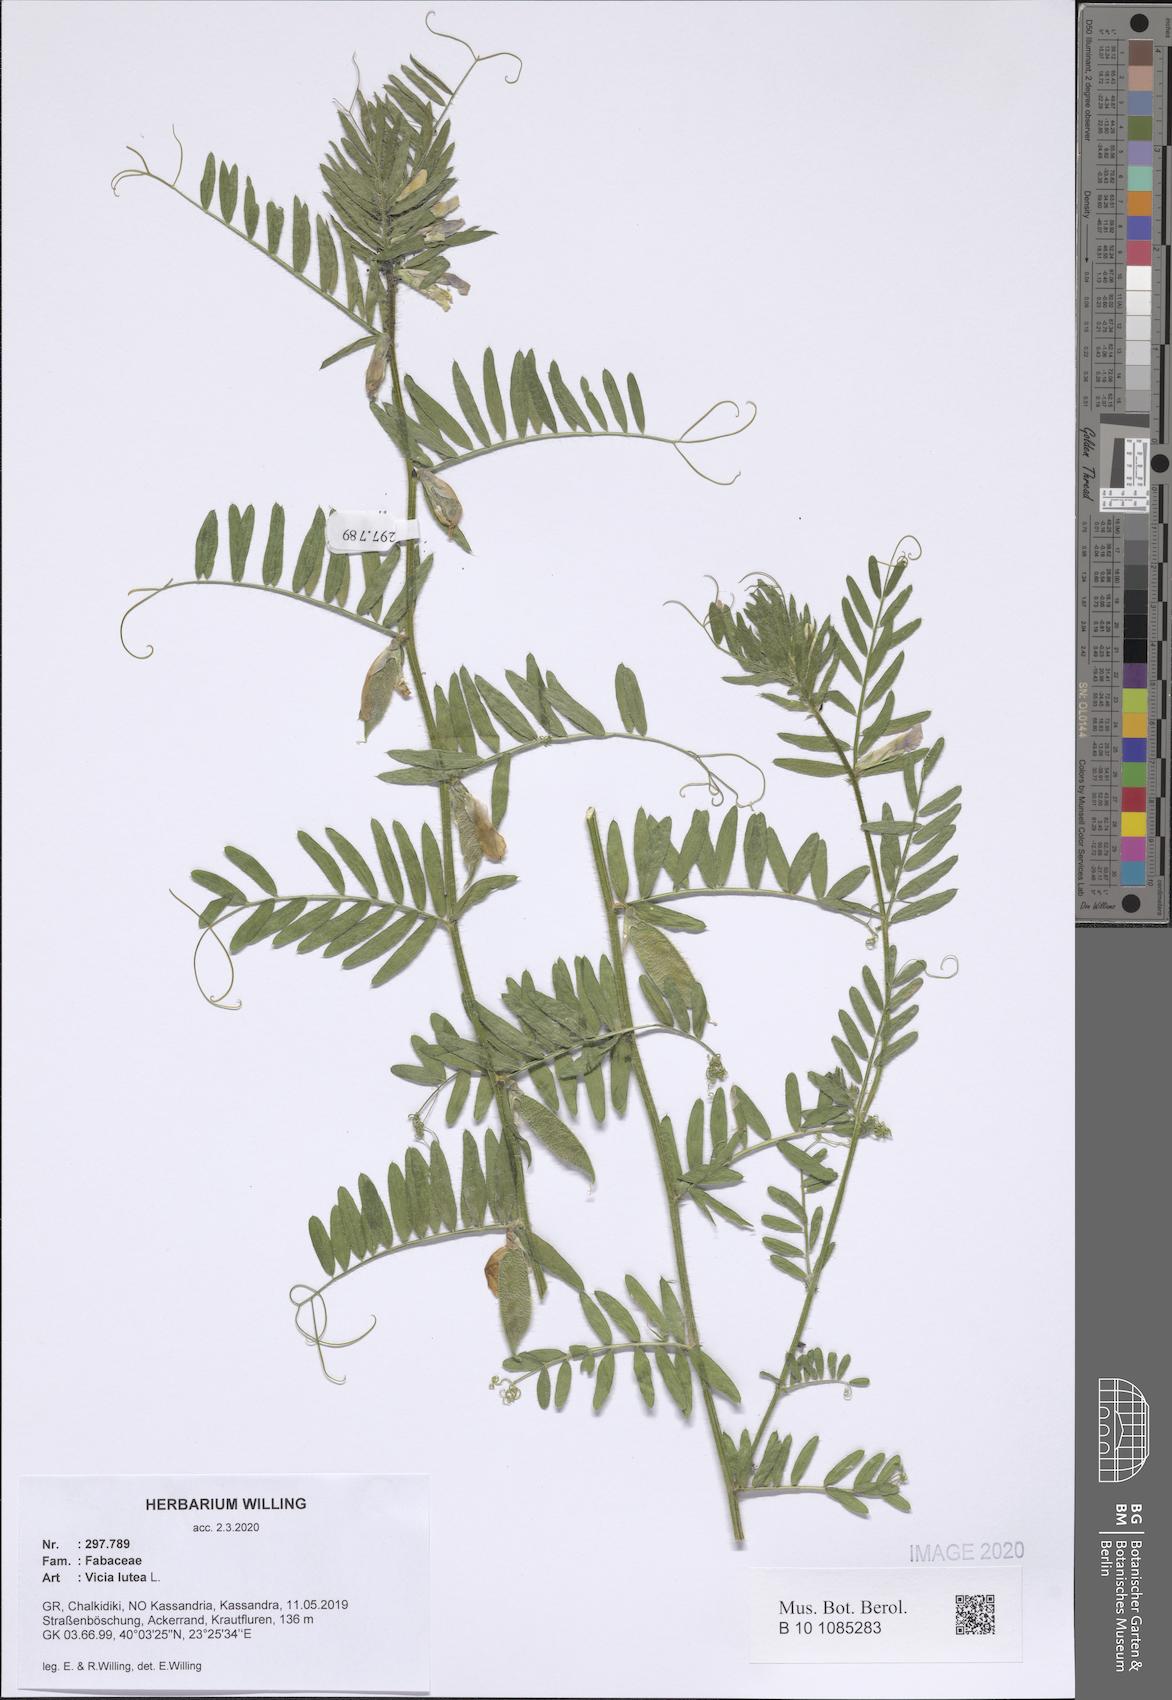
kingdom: Plantae
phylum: Tracheophyta
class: Magnoliopsida
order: Fabales
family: Fabaceae
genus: Vicia
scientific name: Vicia lutea
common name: Smooth yellow vetch
